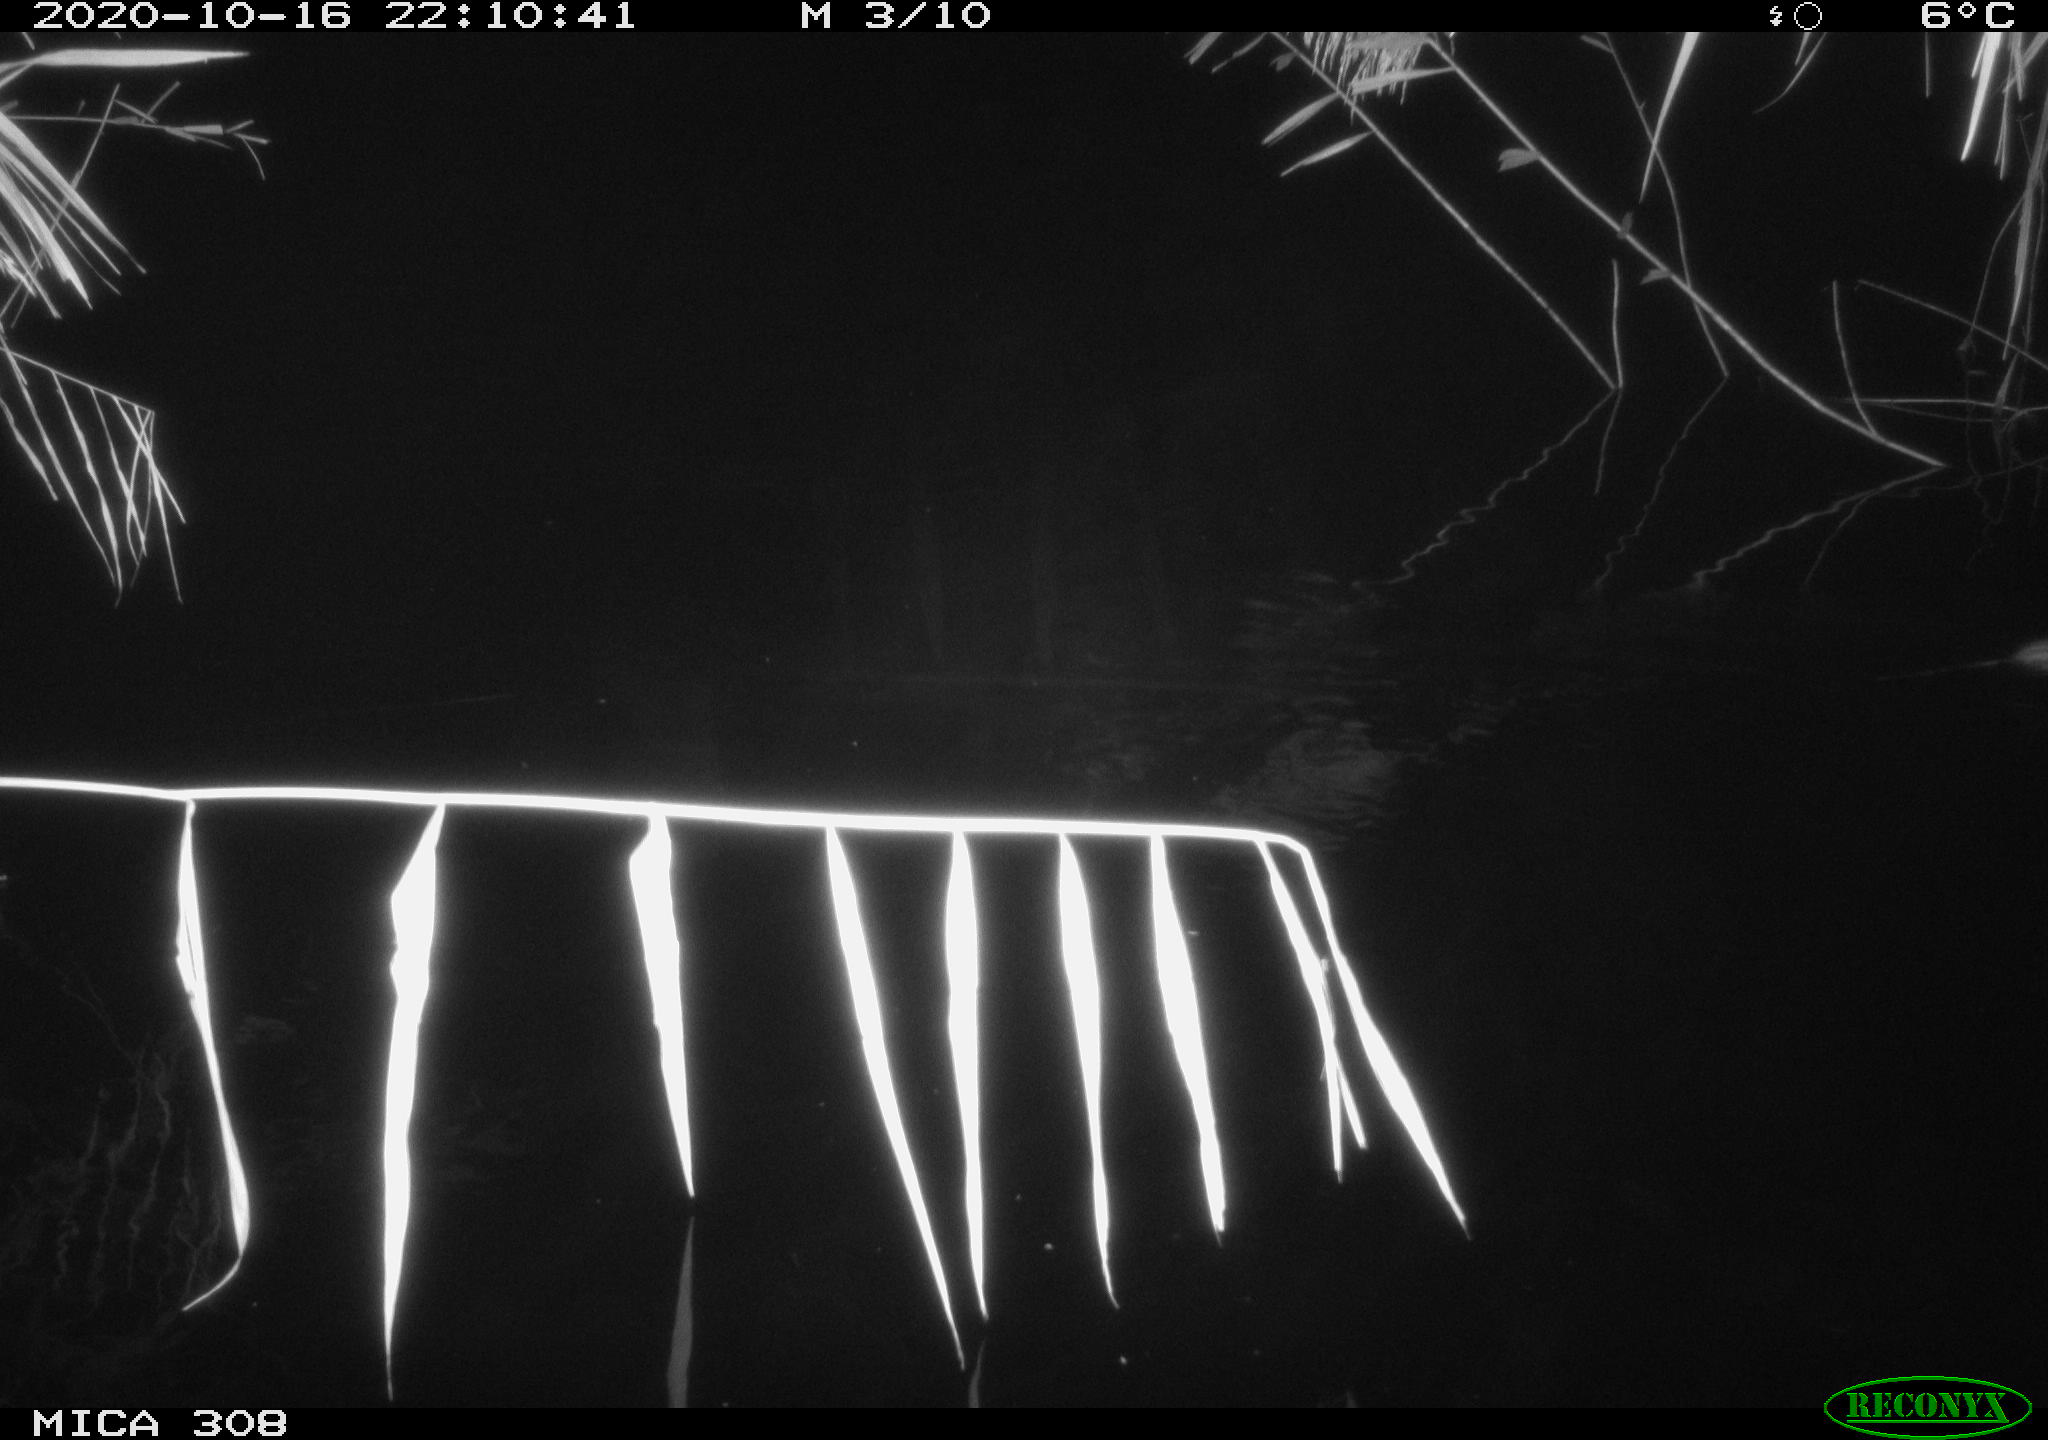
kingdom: Animalia
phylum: Chordata
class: Mammalia
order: Rodentia
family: Muridae
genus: Rattus
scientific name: Rattus norvegicus
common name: Brown rat
